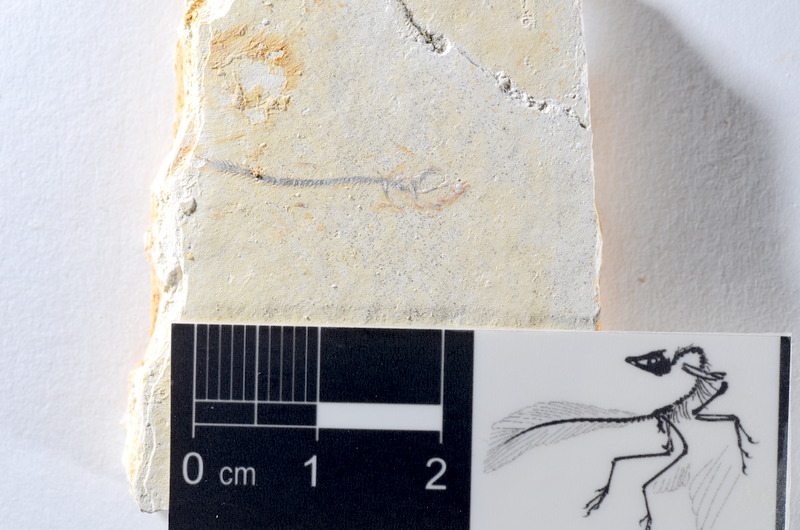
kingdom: Animalia
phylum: Chordata
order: Salmoniformes
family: Orthogonikleithridae
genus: Orthogonikleithrus
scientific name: Orthogonikleithrus hoelli
